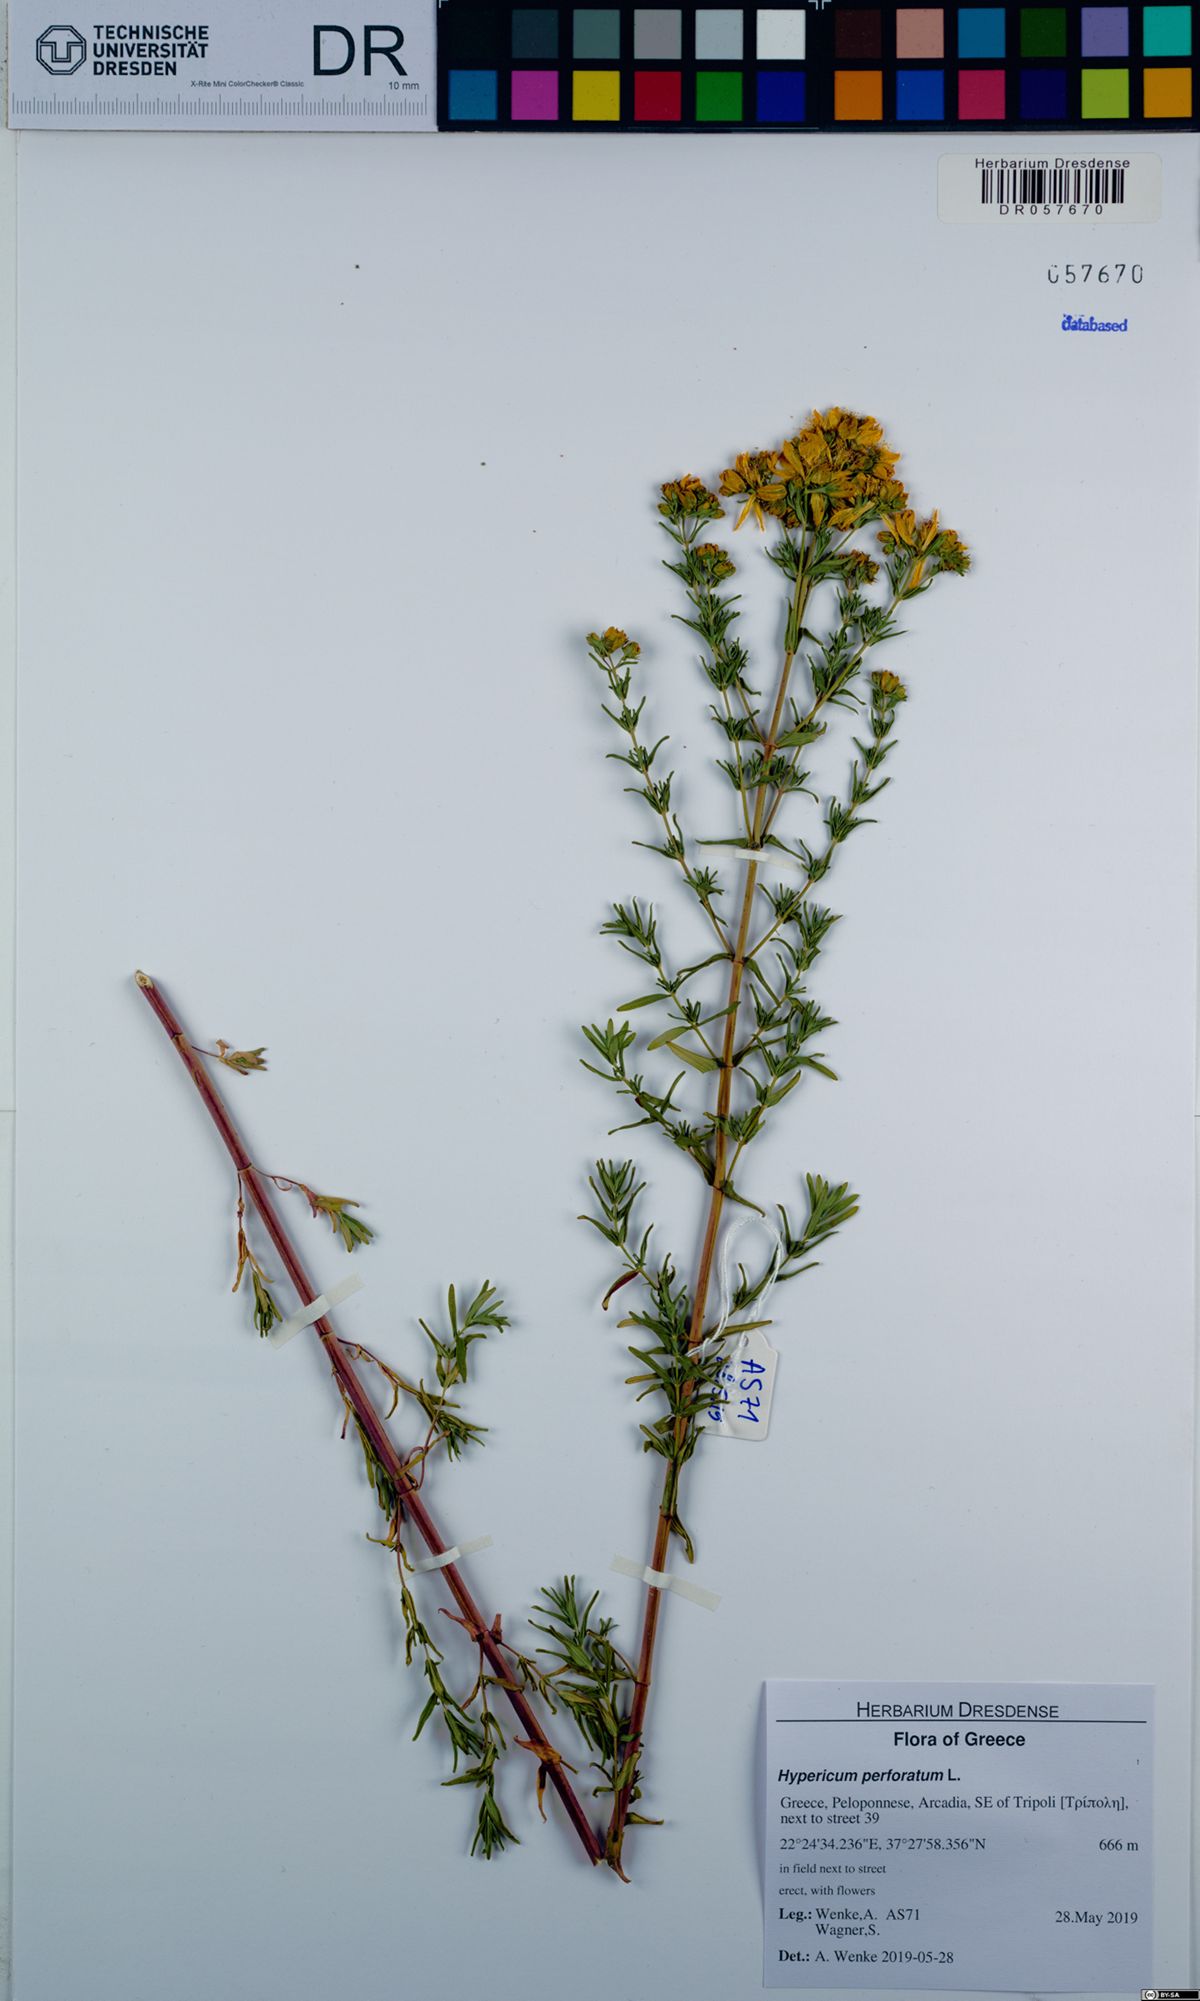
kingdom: Plantae
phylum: Tracheophyta
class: Magnoliopsida
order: Malpighiales
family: Hypericaceae
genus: Hypericum
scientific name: Hypericum perforatum
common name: Common st. johnswort
